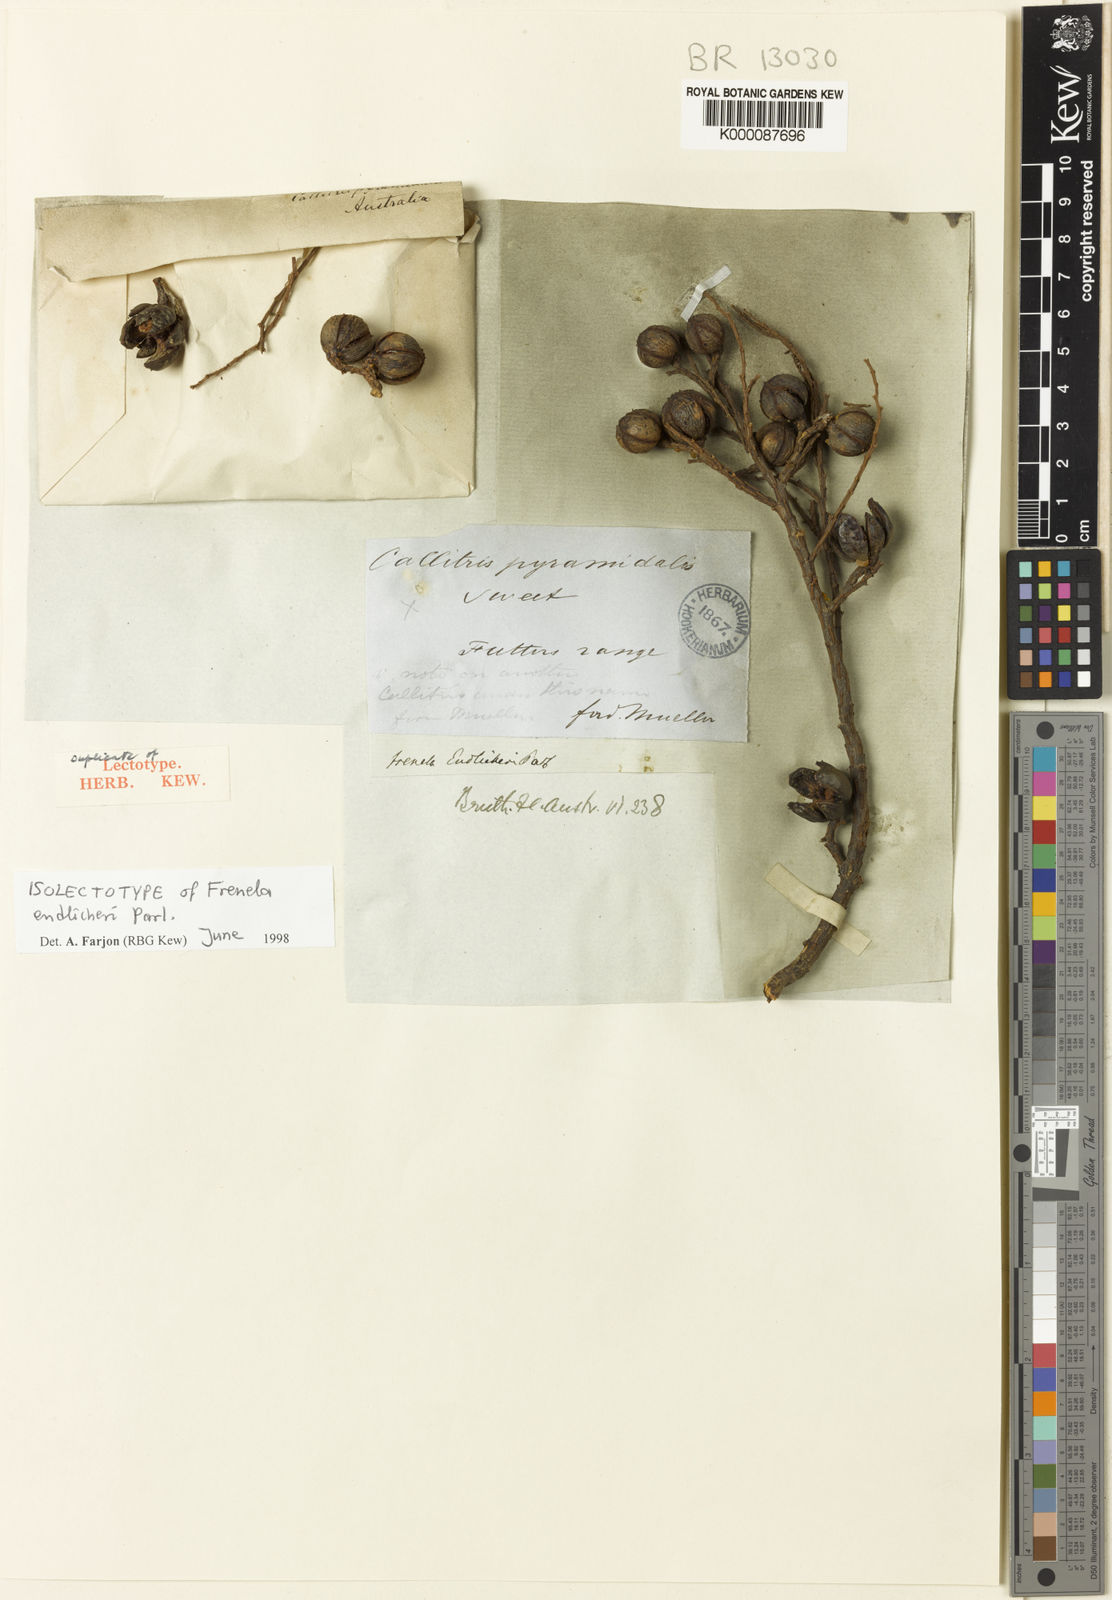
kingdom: Plantae
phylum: Tracheophyta
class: Pinopsida
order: Pinales
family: Cupressaceae
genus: Callitris
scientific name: Callitris endlicheri
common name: Black cypress-pine
